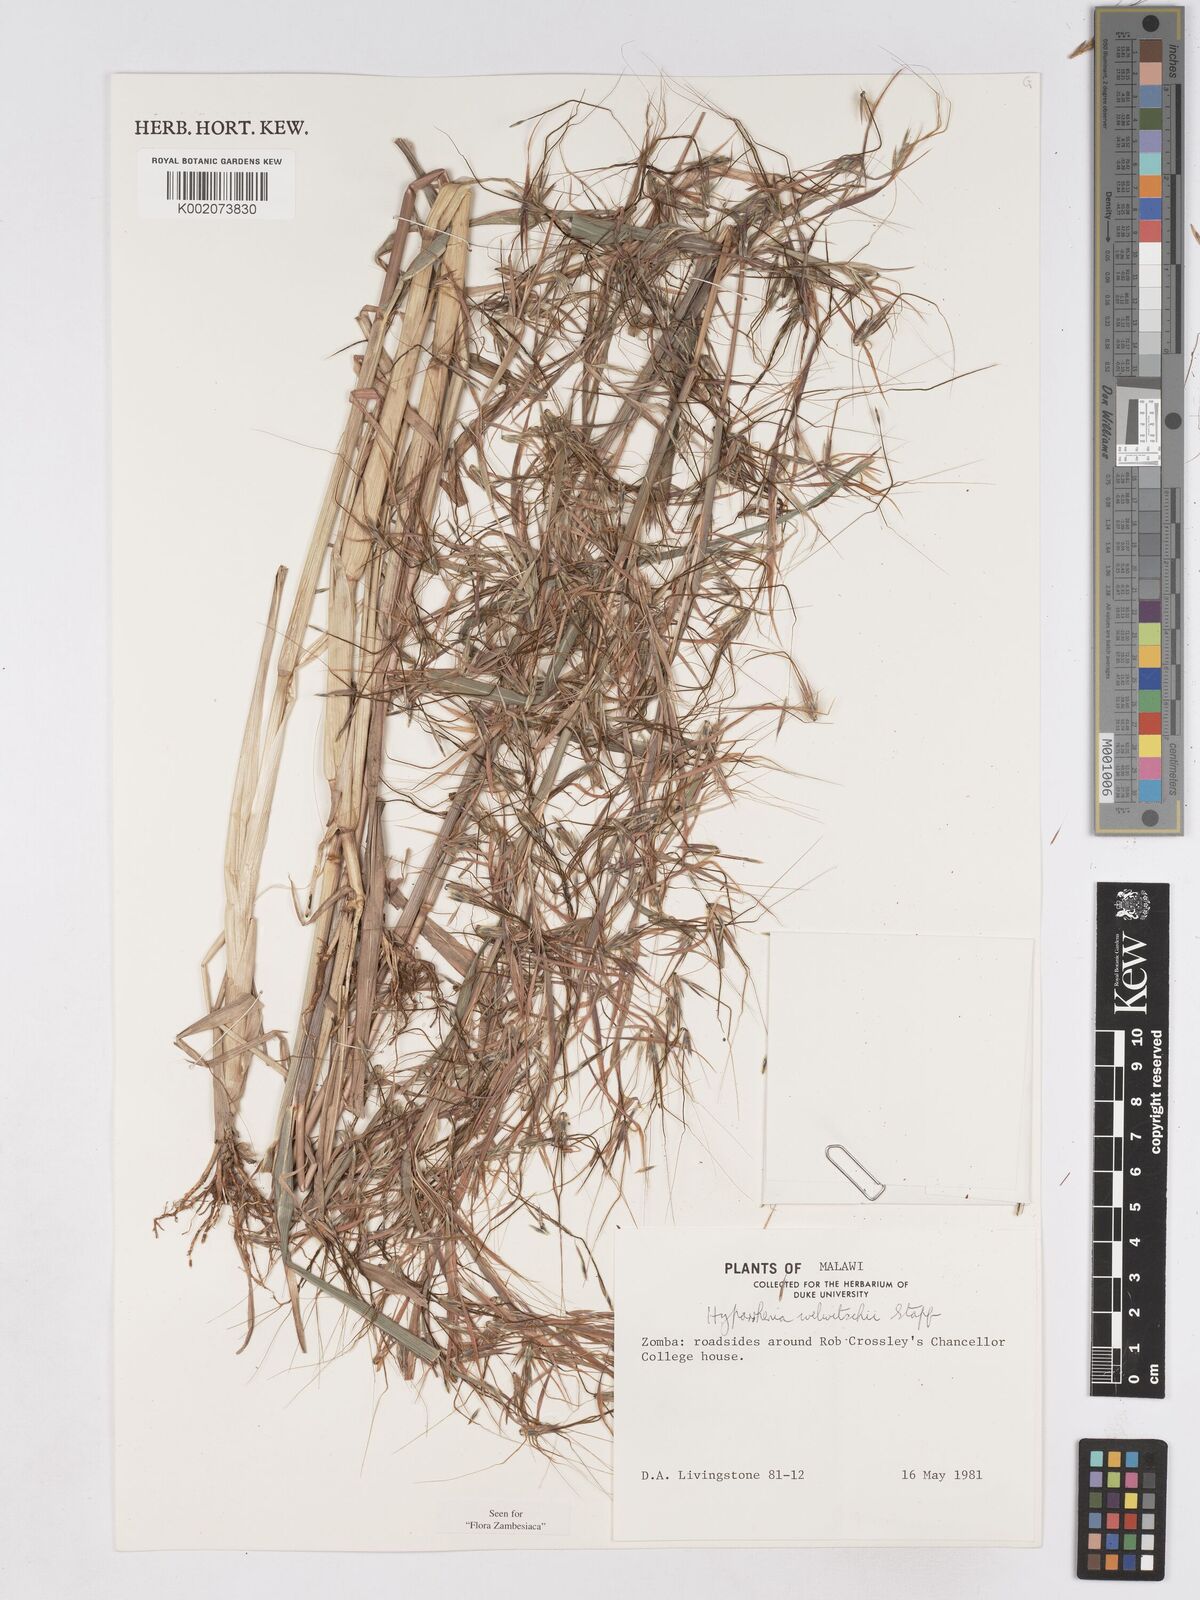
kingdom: Plantae
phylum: Tracheophyta
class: Liliopsida
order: Poales
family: Poaceae
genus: Hyparrhenia
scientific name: Hyparrhenia welwitschii
